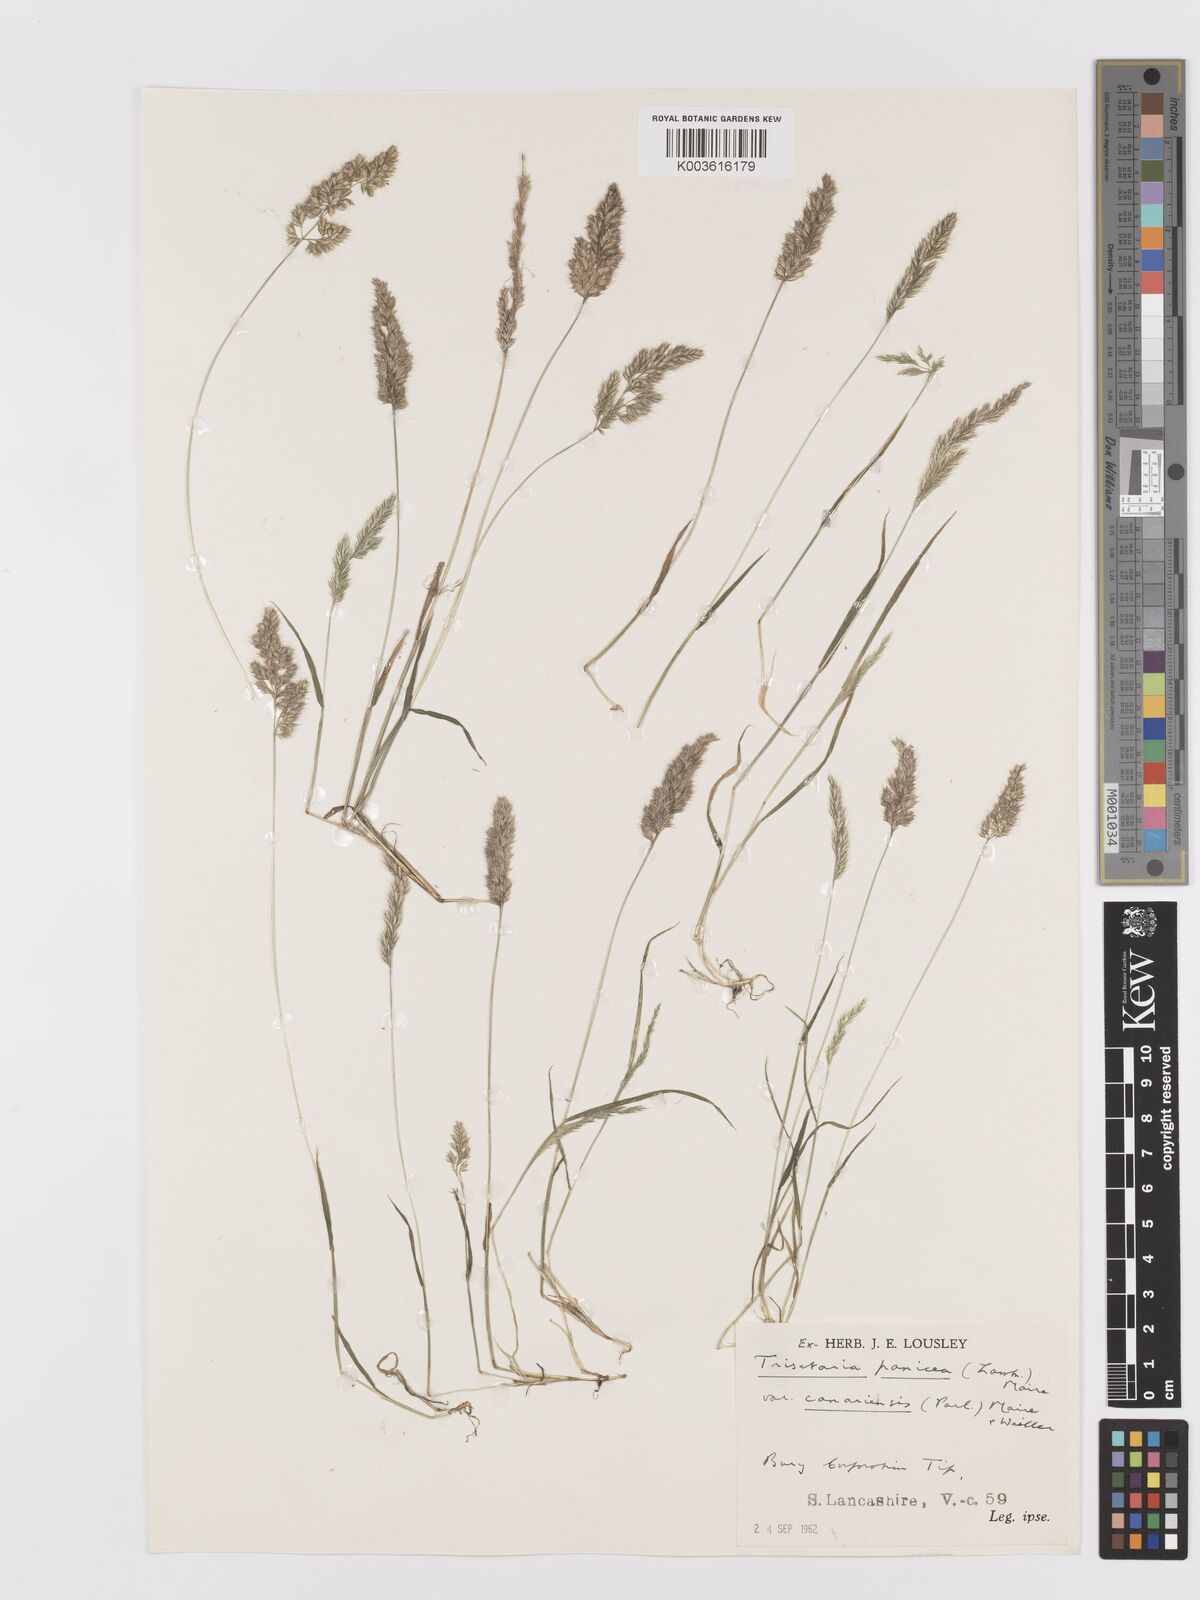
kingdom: Plantae
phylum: Tracheophyta
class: Liliopsida
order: Poales
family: Poaceae
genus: Trisetaria
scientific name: Trisetaria panicea
